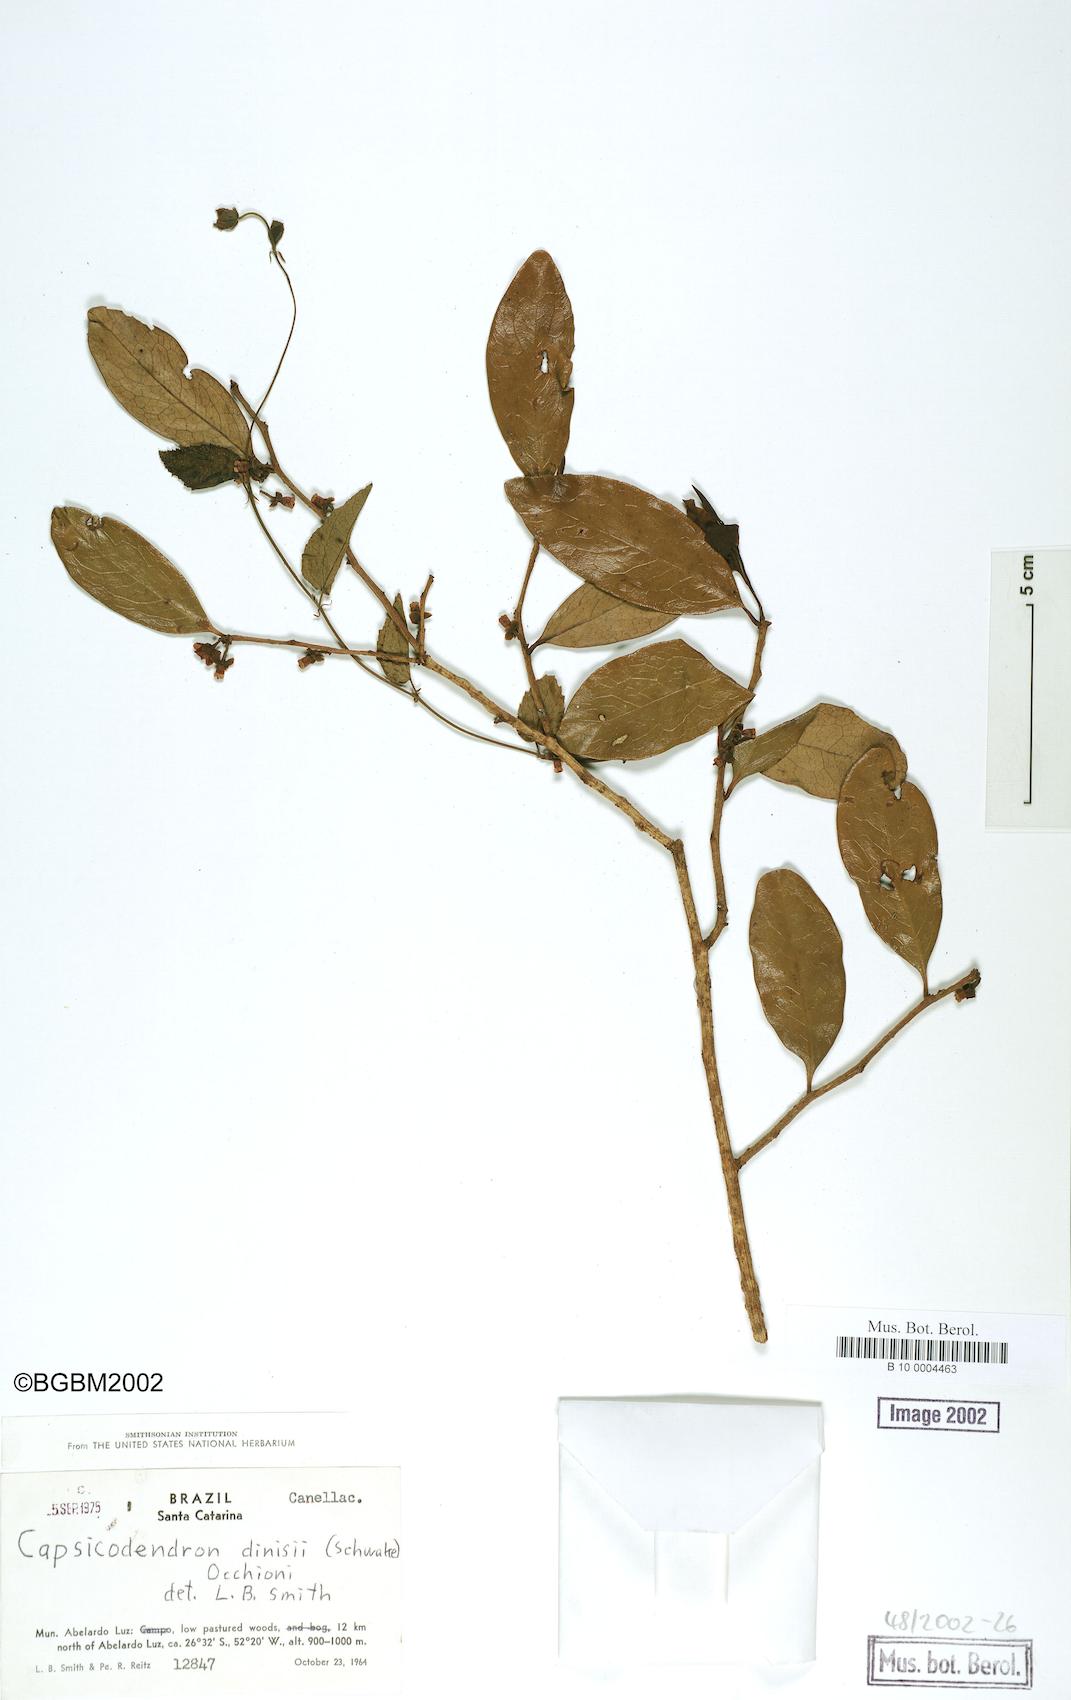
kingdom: Plantae
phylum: Tracheophyta
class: Magnoliopsida
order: Canellales
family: Canellaceae
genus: Cinnamodendron
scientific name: Cinnamodendron dinisii
